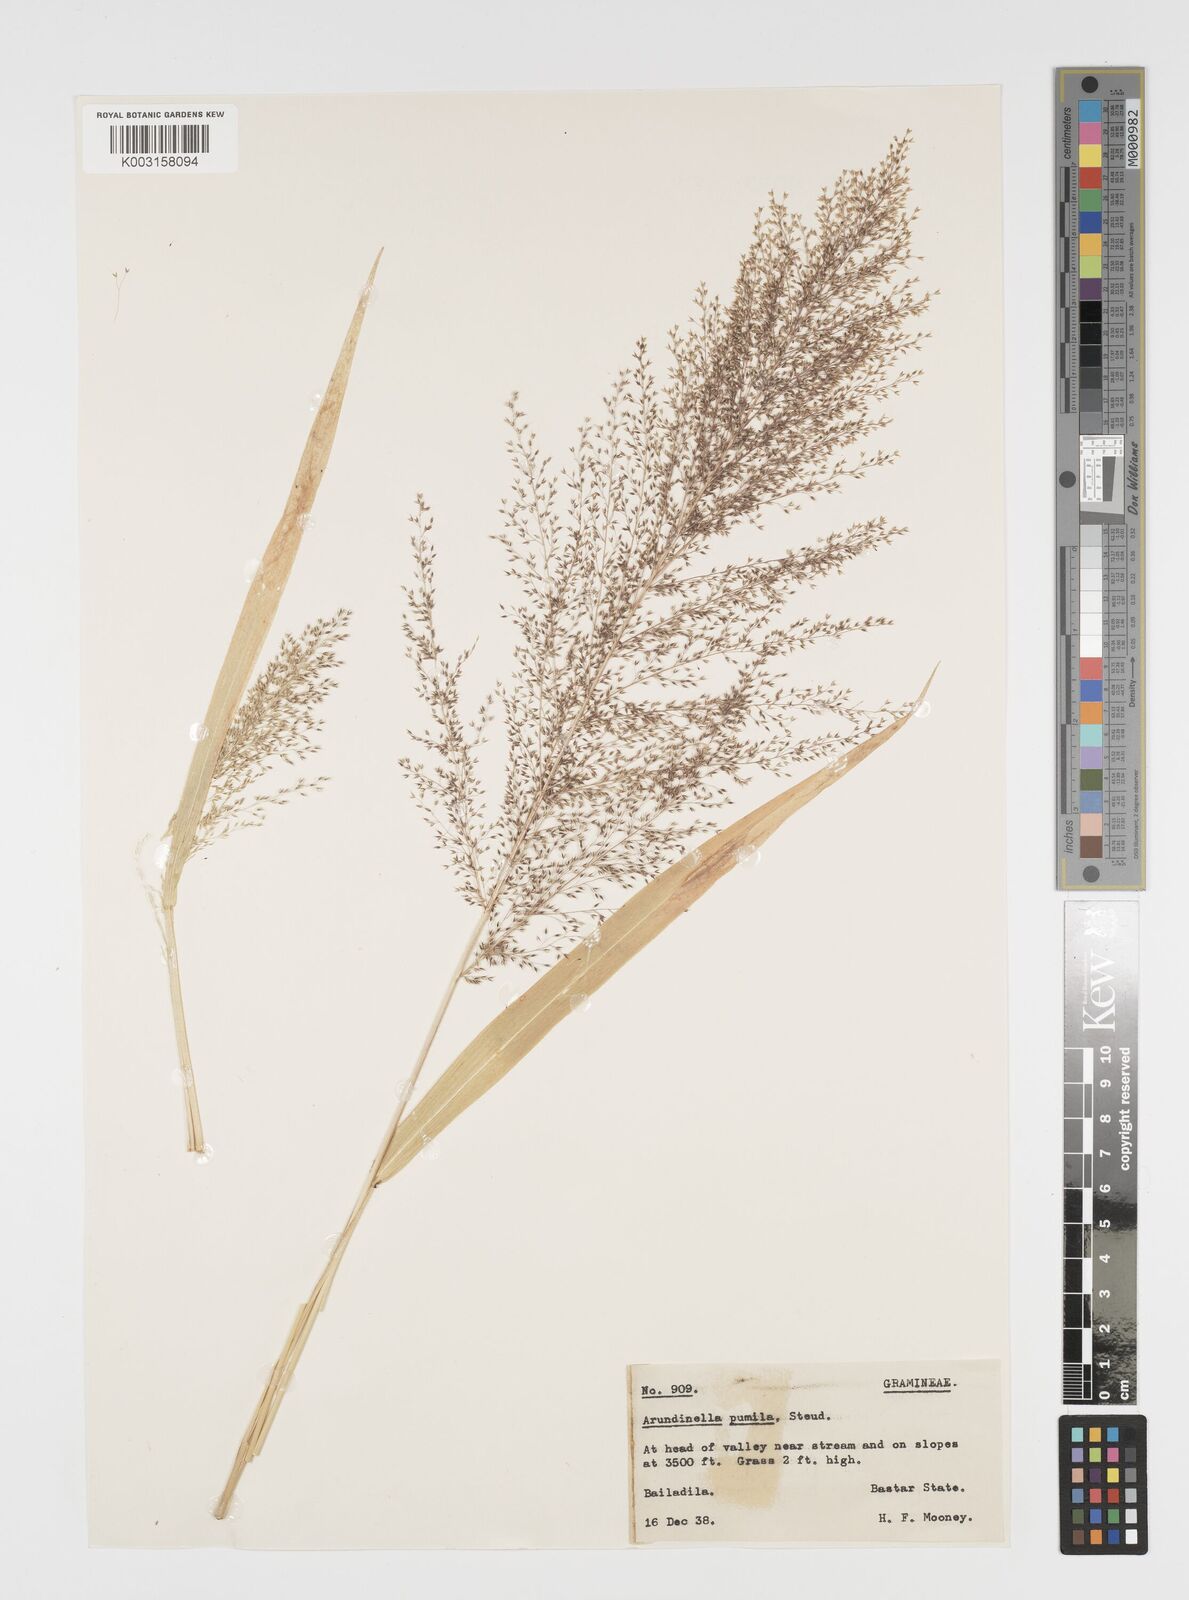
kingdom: Plantae
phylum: Tracheophyta
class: Liliopsida
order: Poales
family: Poaceae
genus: Arundinella
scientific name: Arundinella pumila
